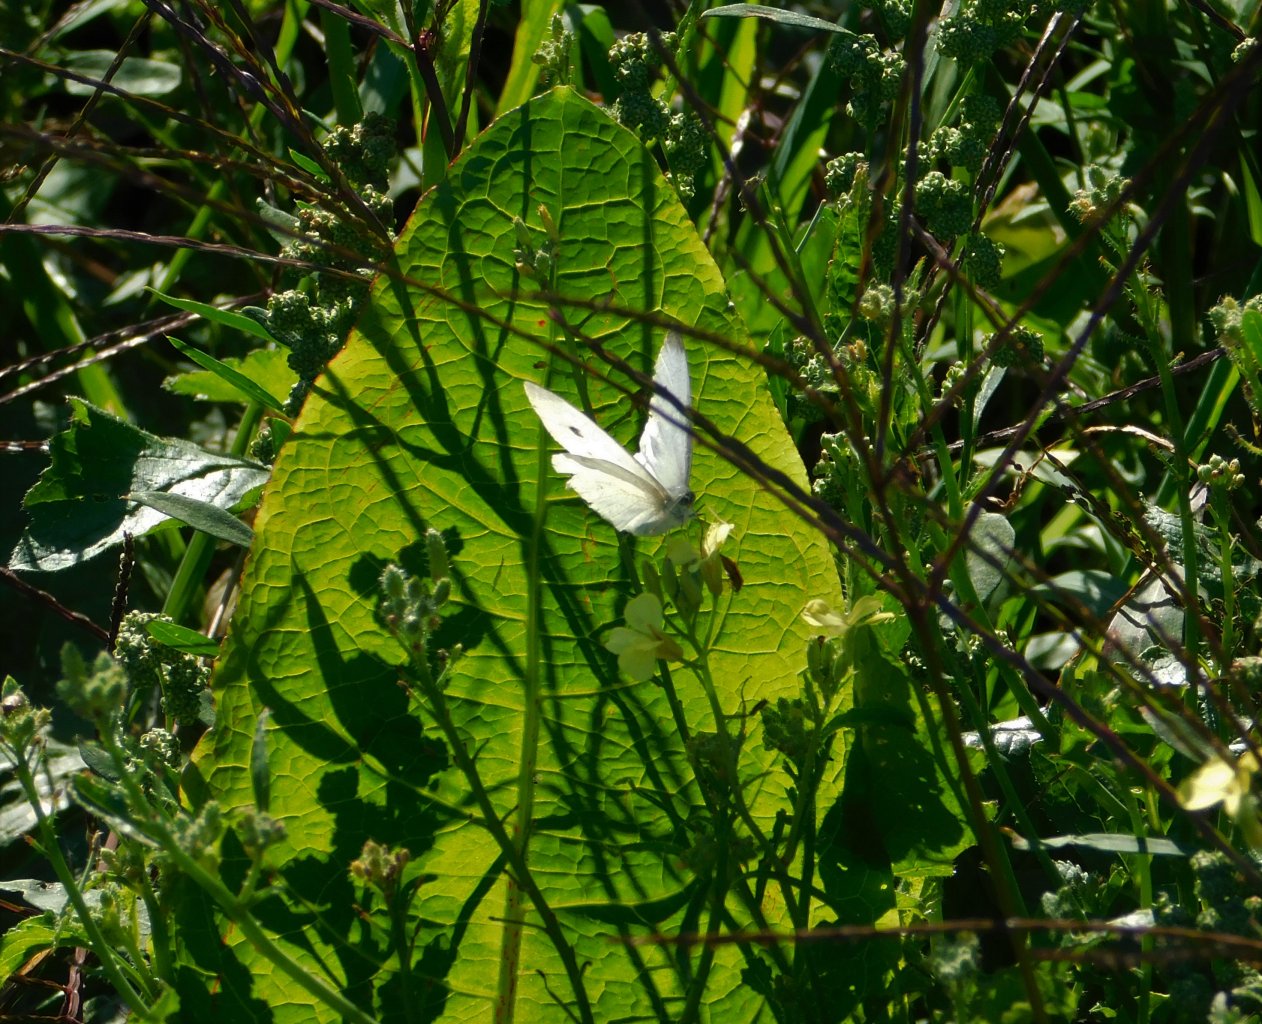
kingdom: Animalia
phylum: Arthropoda
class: Insecta
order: Lepidoptera
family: Pieridae
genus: Pieris
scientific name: Pieris rapae
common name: Cabbage White
